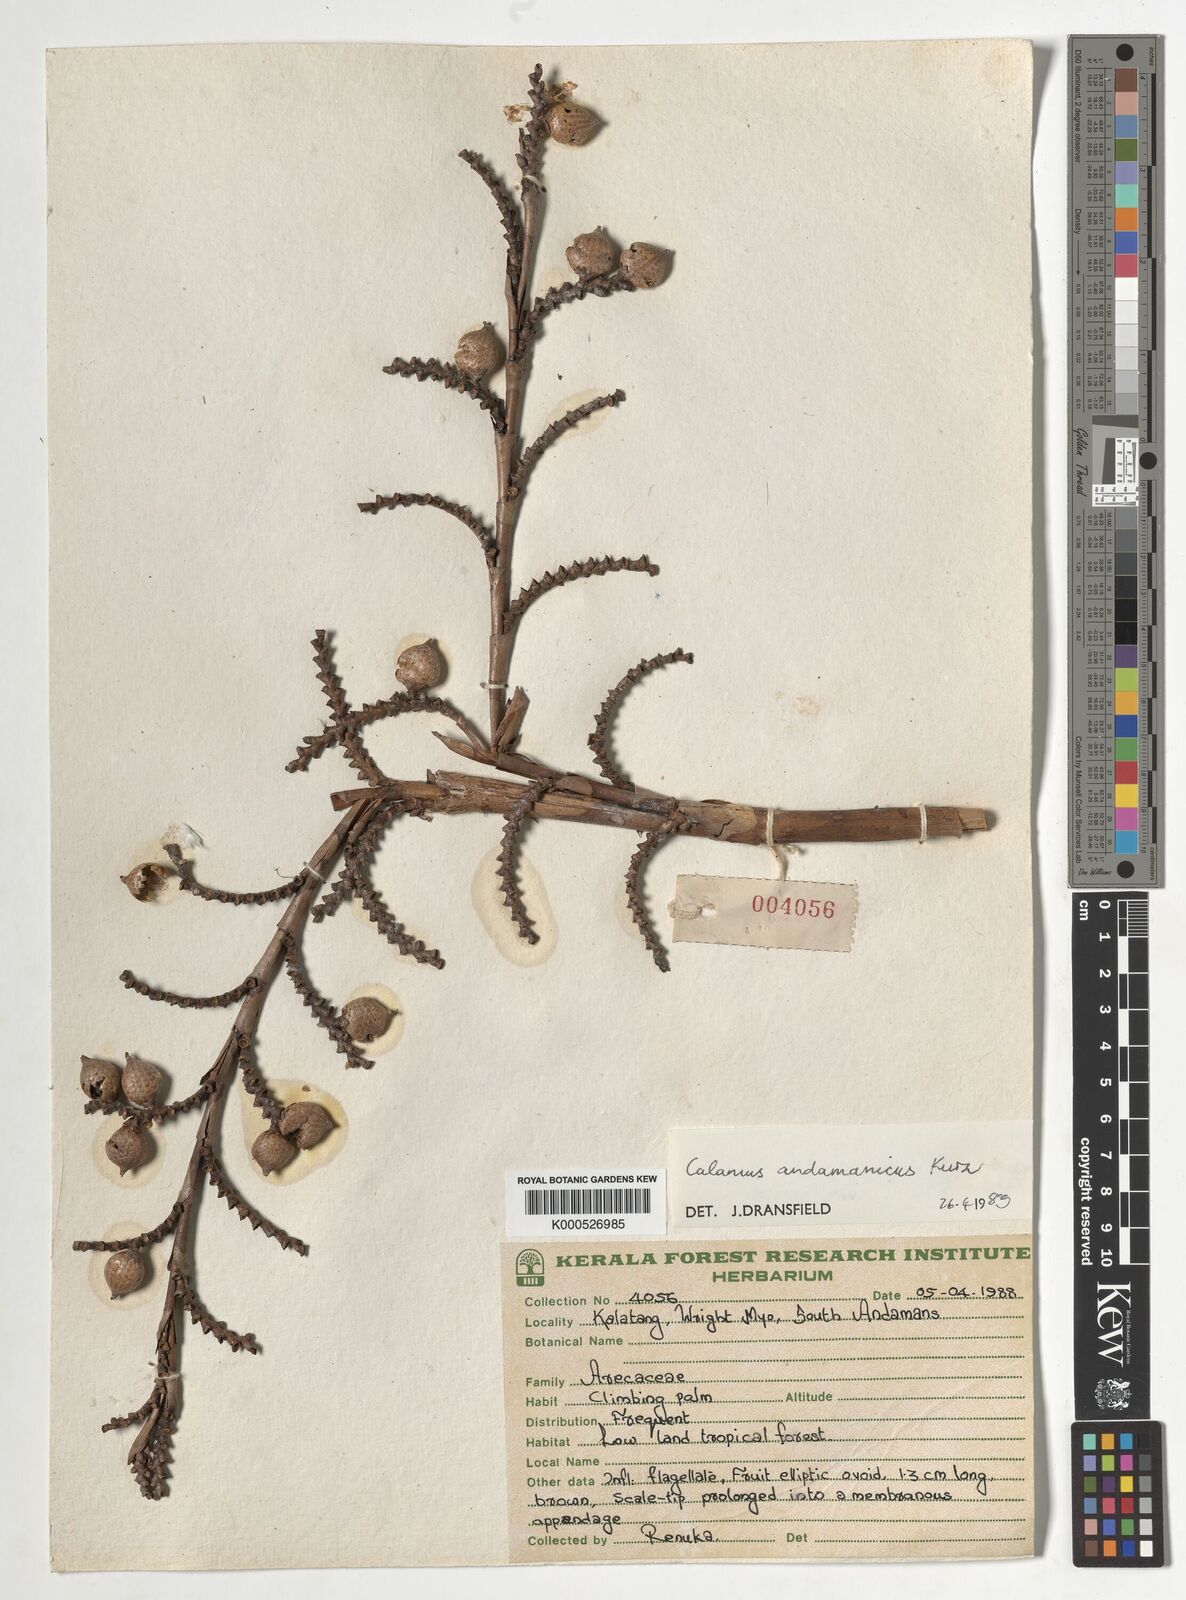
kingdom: Plantae
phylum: Tracheophyta
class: Liliopsida
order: Arecales
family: Arecaceae
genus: Calamus
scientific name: Calamus andamanicus
